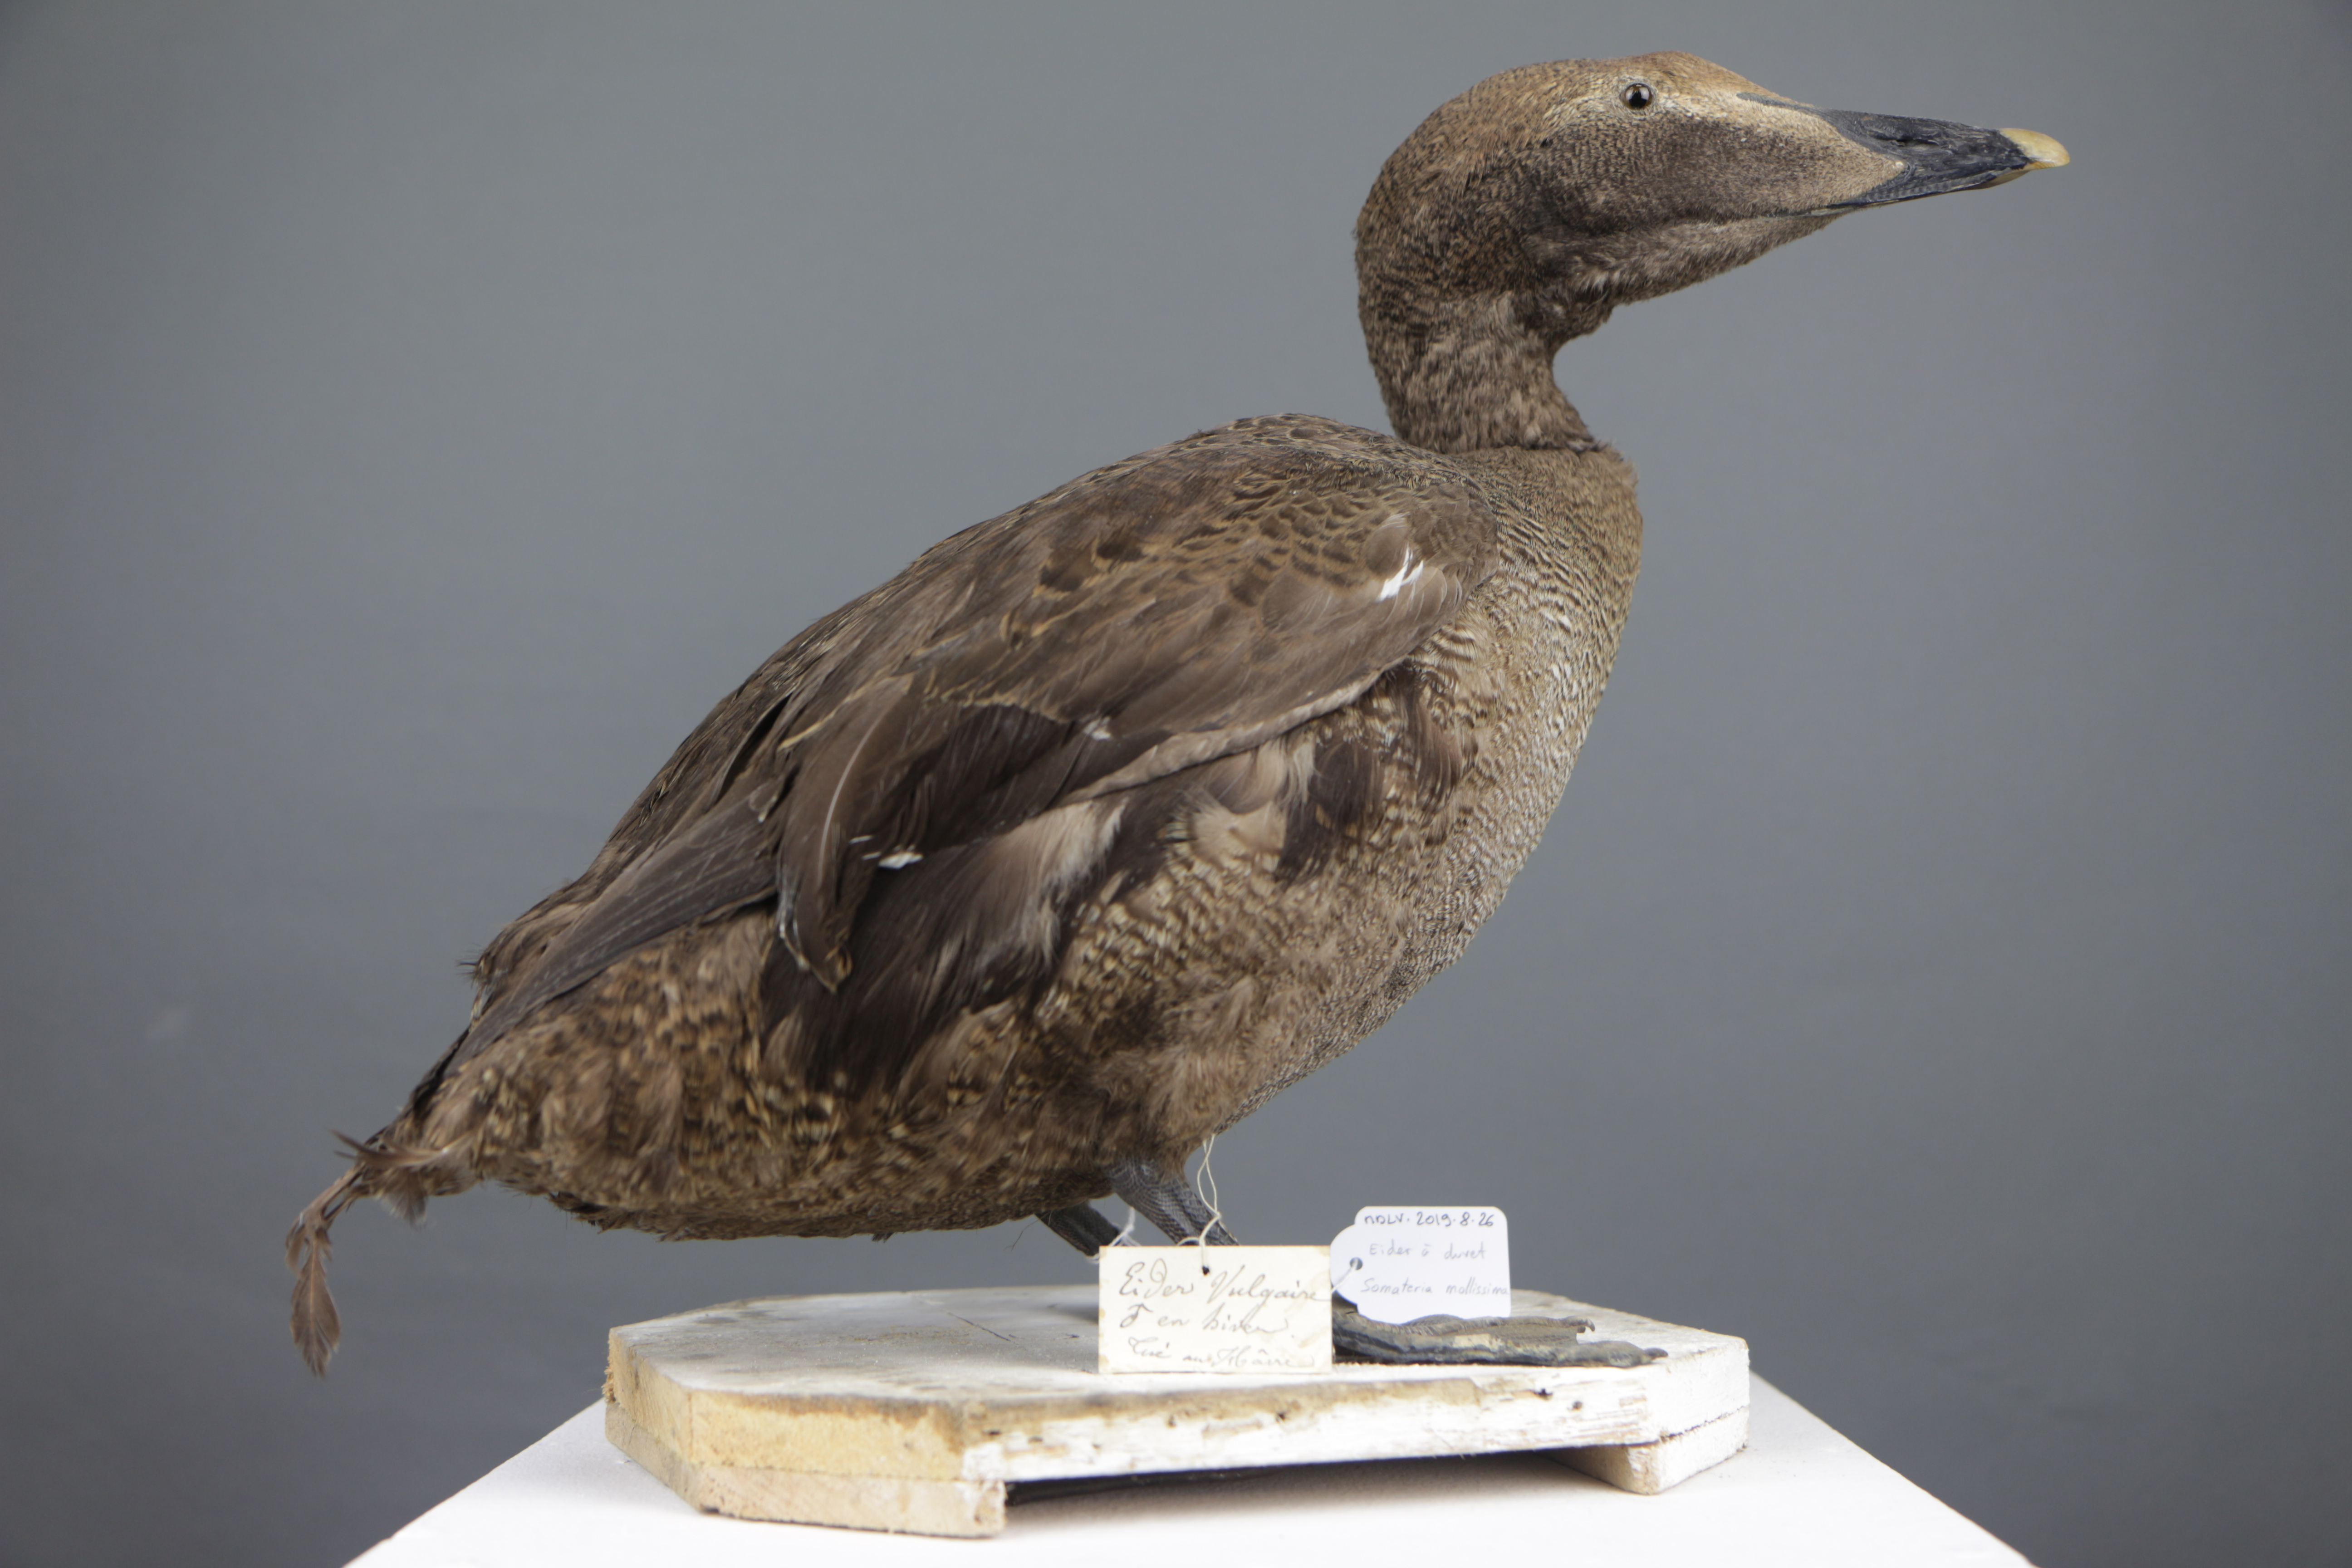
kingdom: Animalia
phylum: Chordata
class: Aves
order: Anseriformes
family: Anatidae
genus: Somateria
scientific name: Somateria mollissima
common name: Common eider
